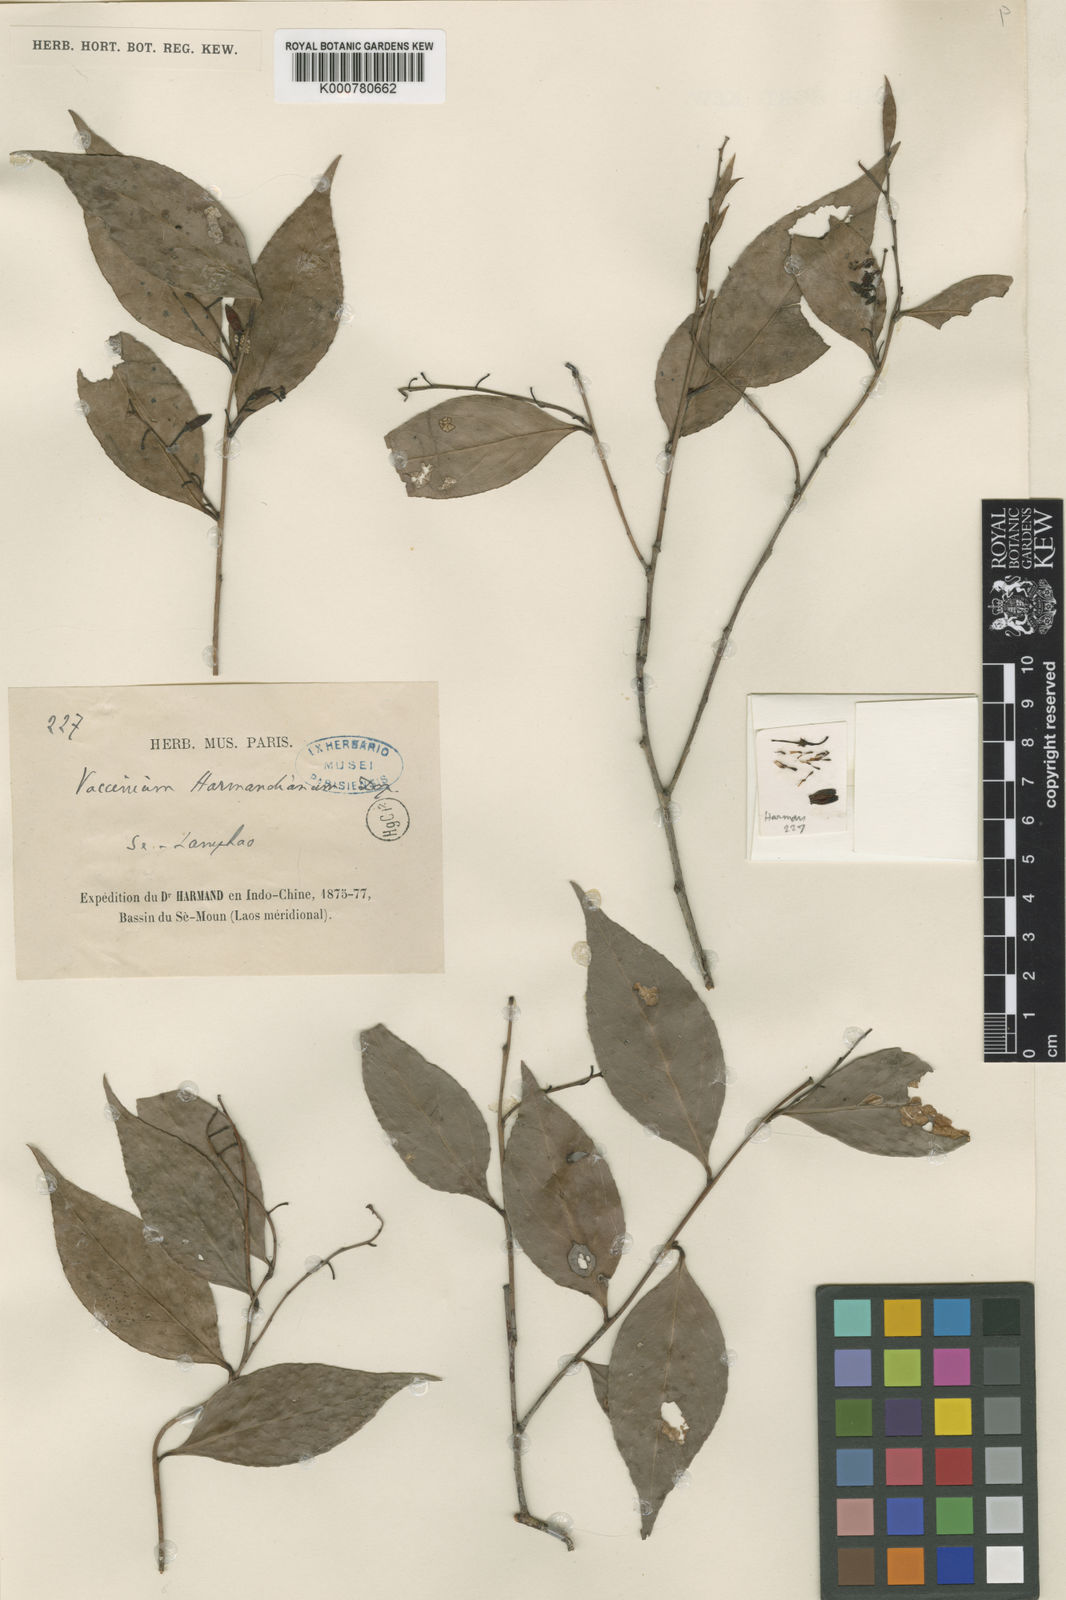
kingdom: Plantae
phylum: Tracheophyta
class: Magnoliopsida
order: Ericales
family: Ericaceae
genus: Vaccinium
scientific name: Vaccinium sprengelii
